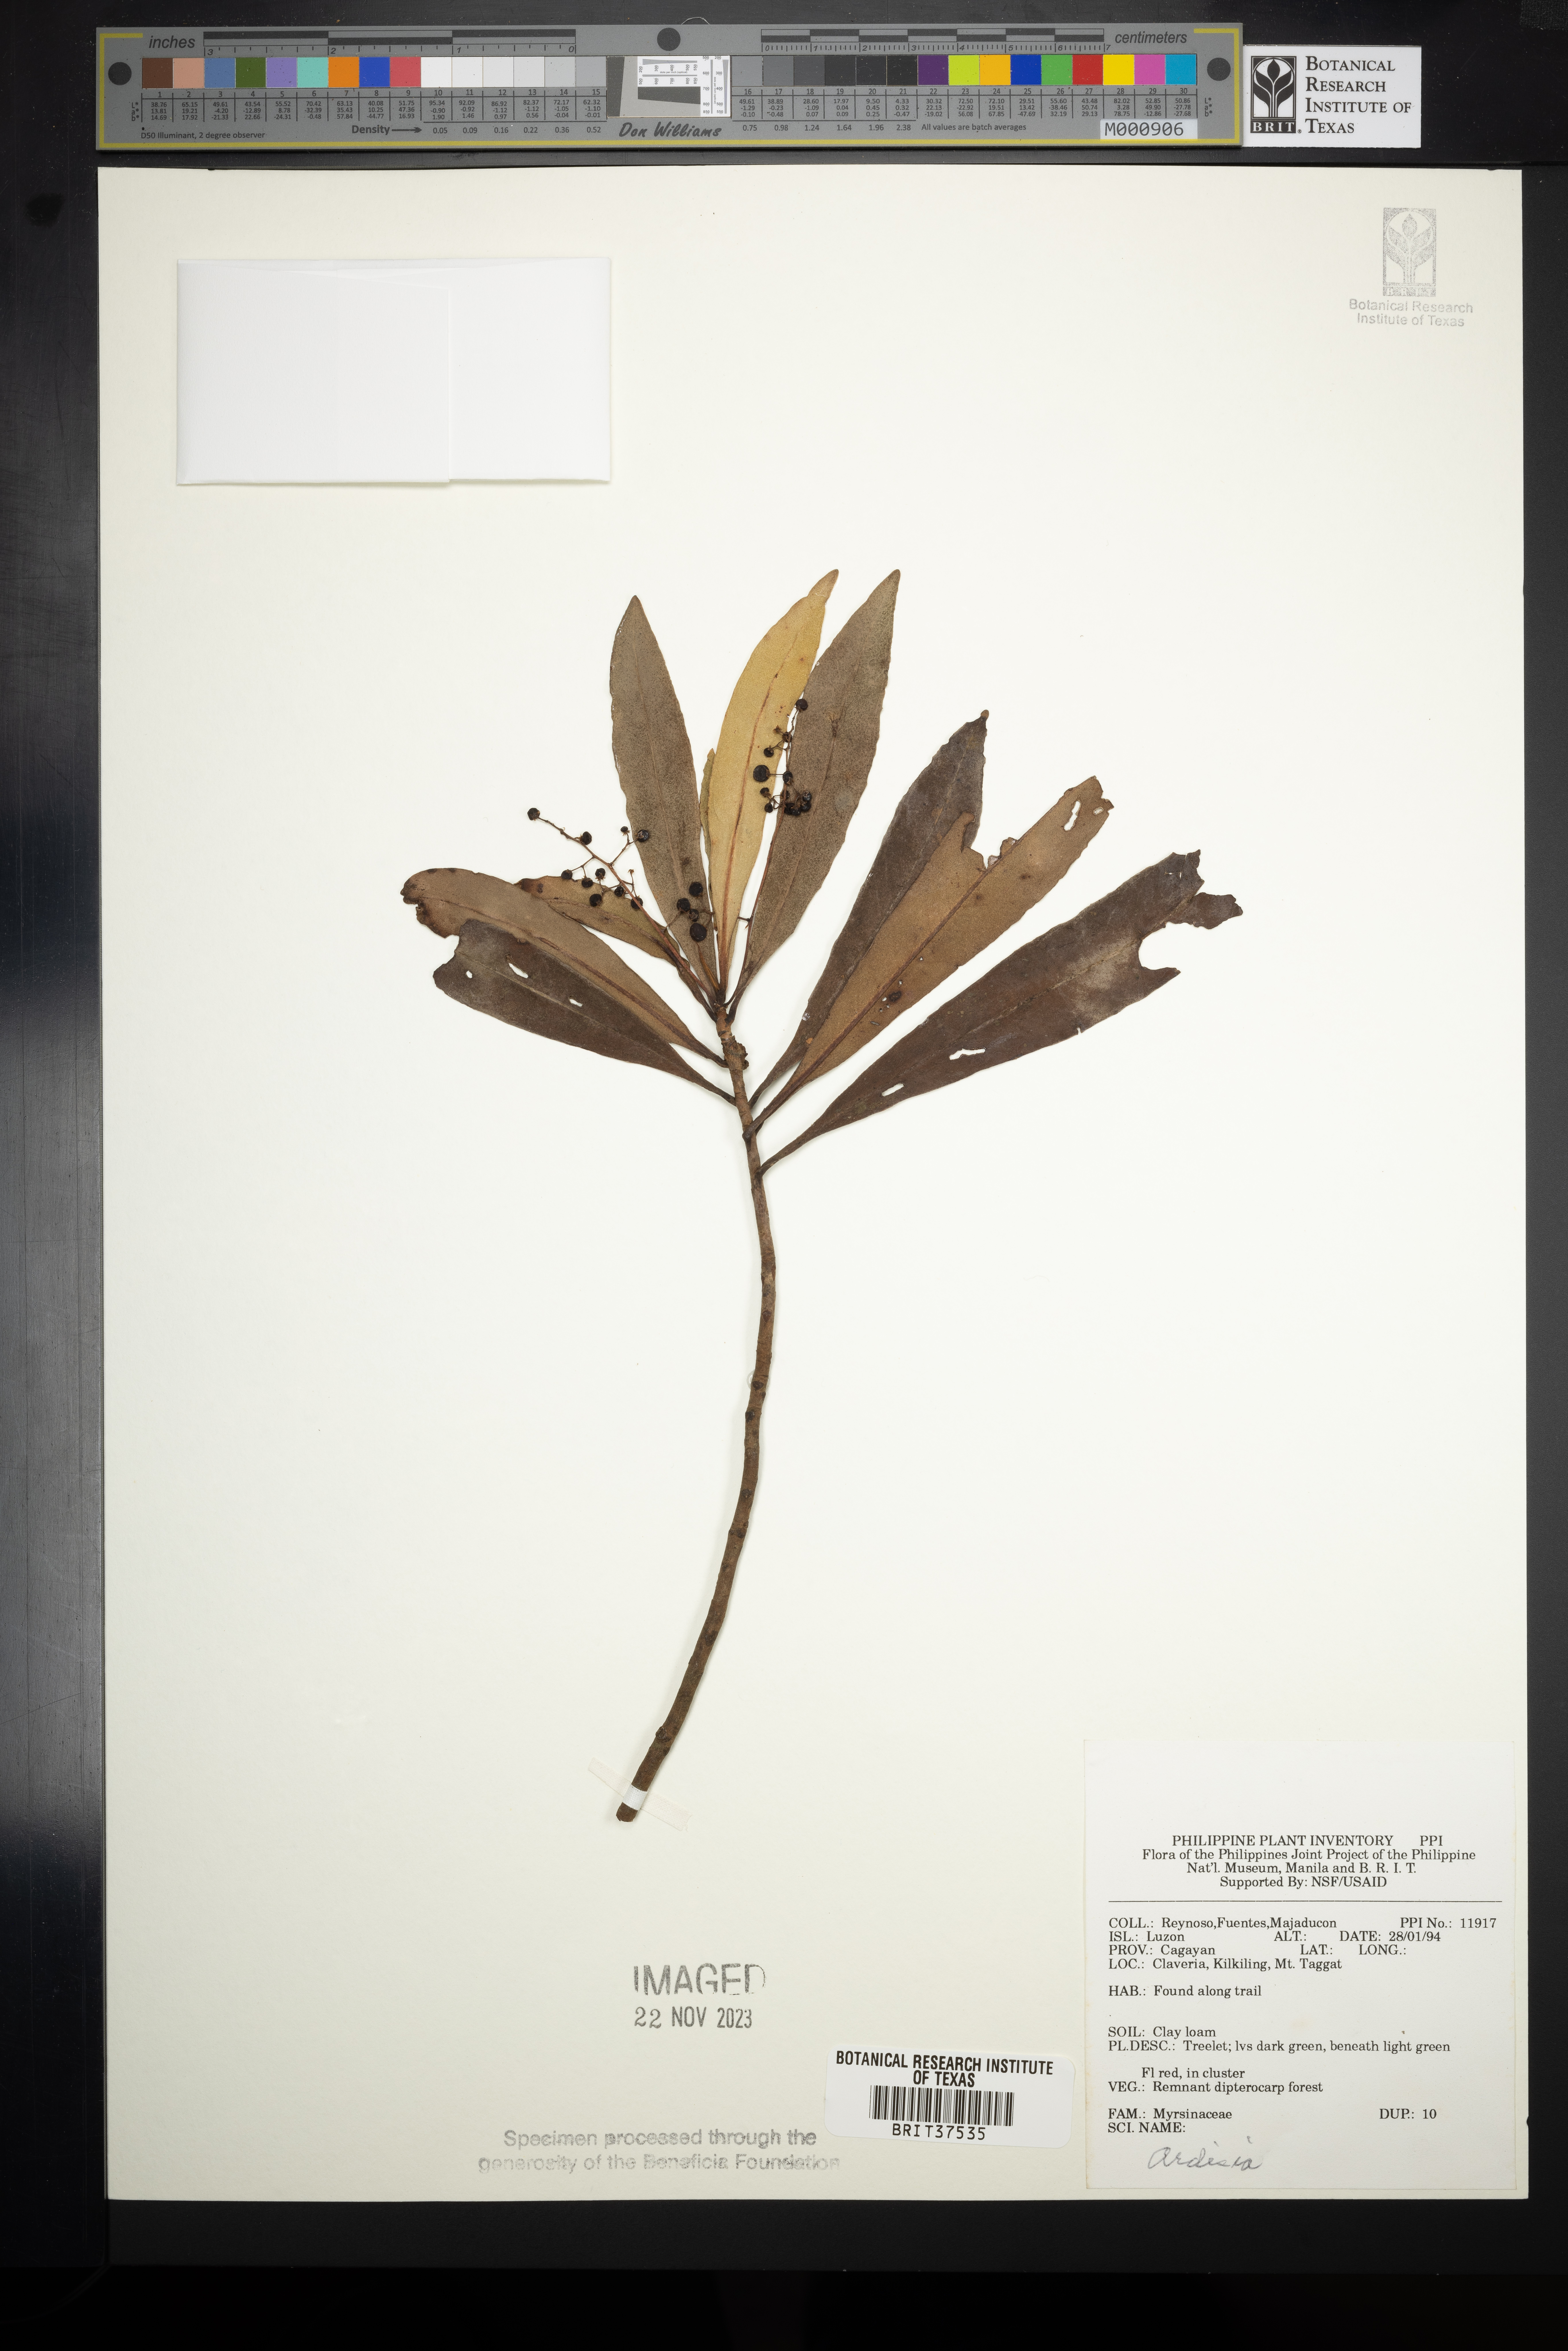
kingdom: Plantae
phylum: Tracheophyta
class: Magnoliopsida
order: Ericales
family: Primulaceae
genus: Ardisia
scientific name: Ardisia
